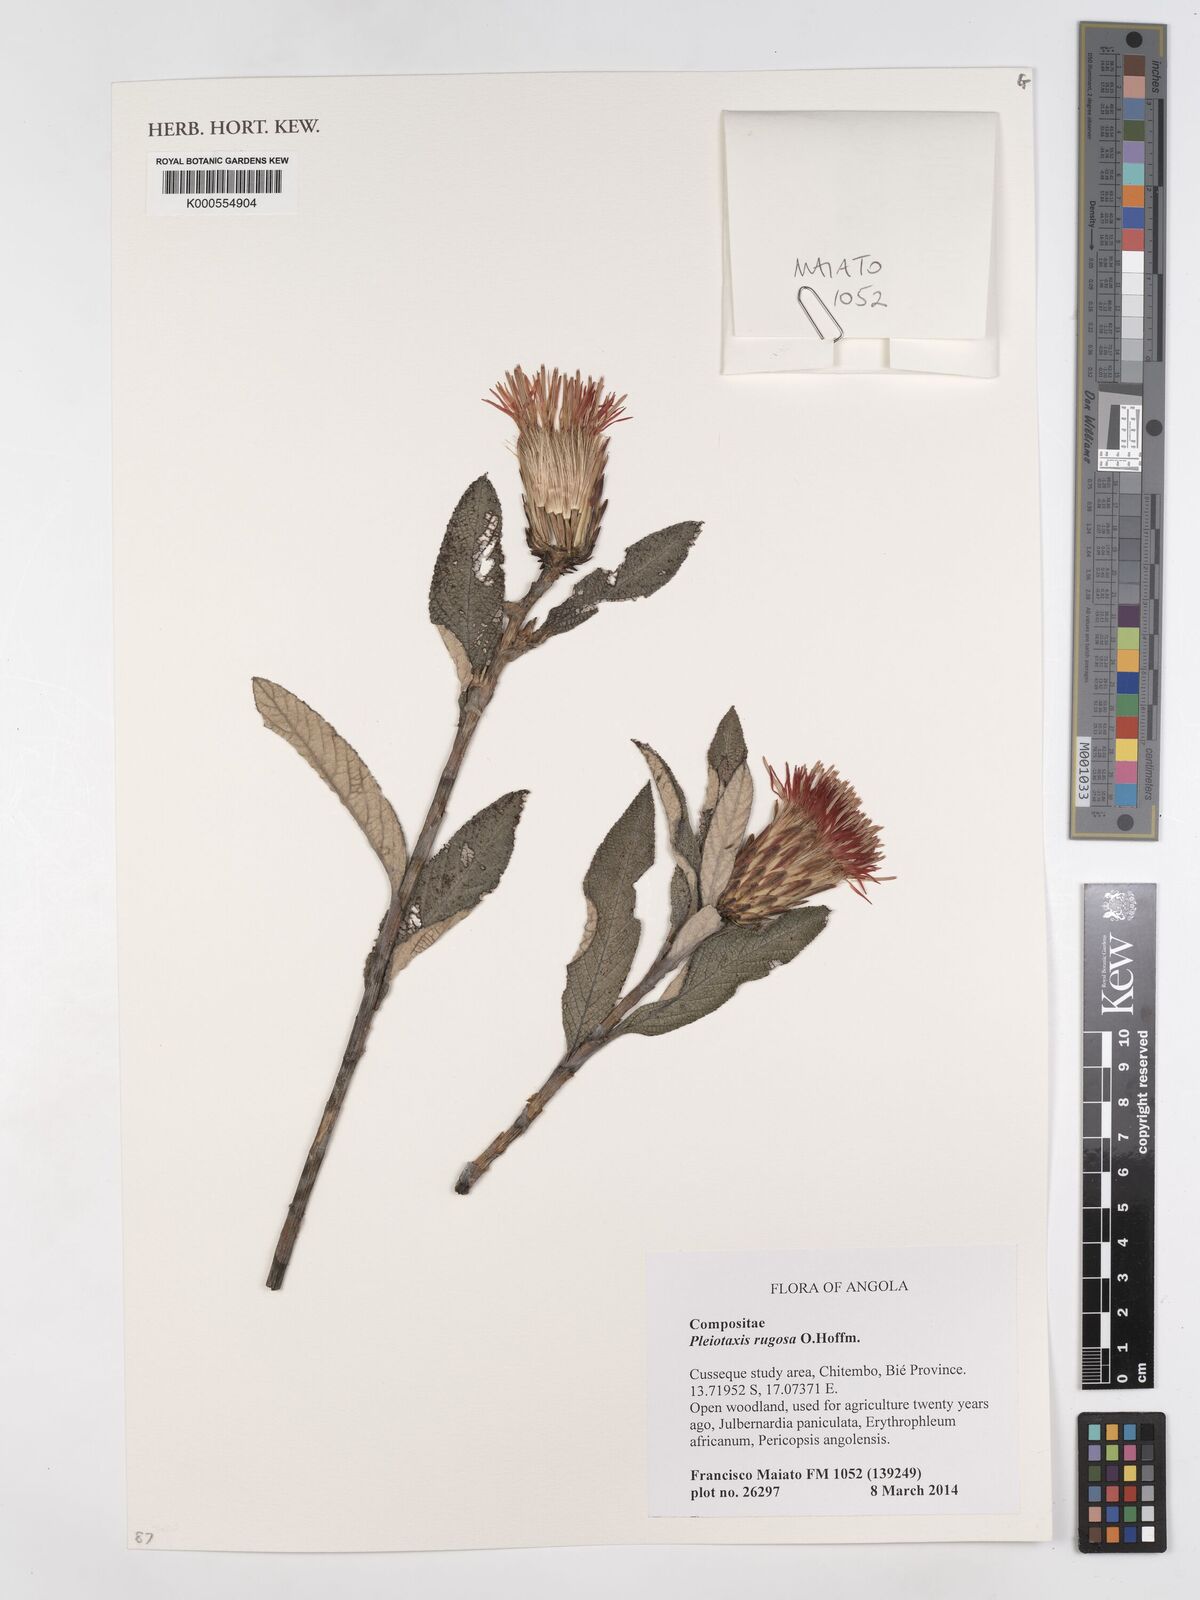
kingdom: Plantae
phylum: Tracheophyta
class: Magnoliopsida
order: Asterales
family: Asteraceae
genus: Pleiotaxis
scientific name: Pleiotaxis rugosa
